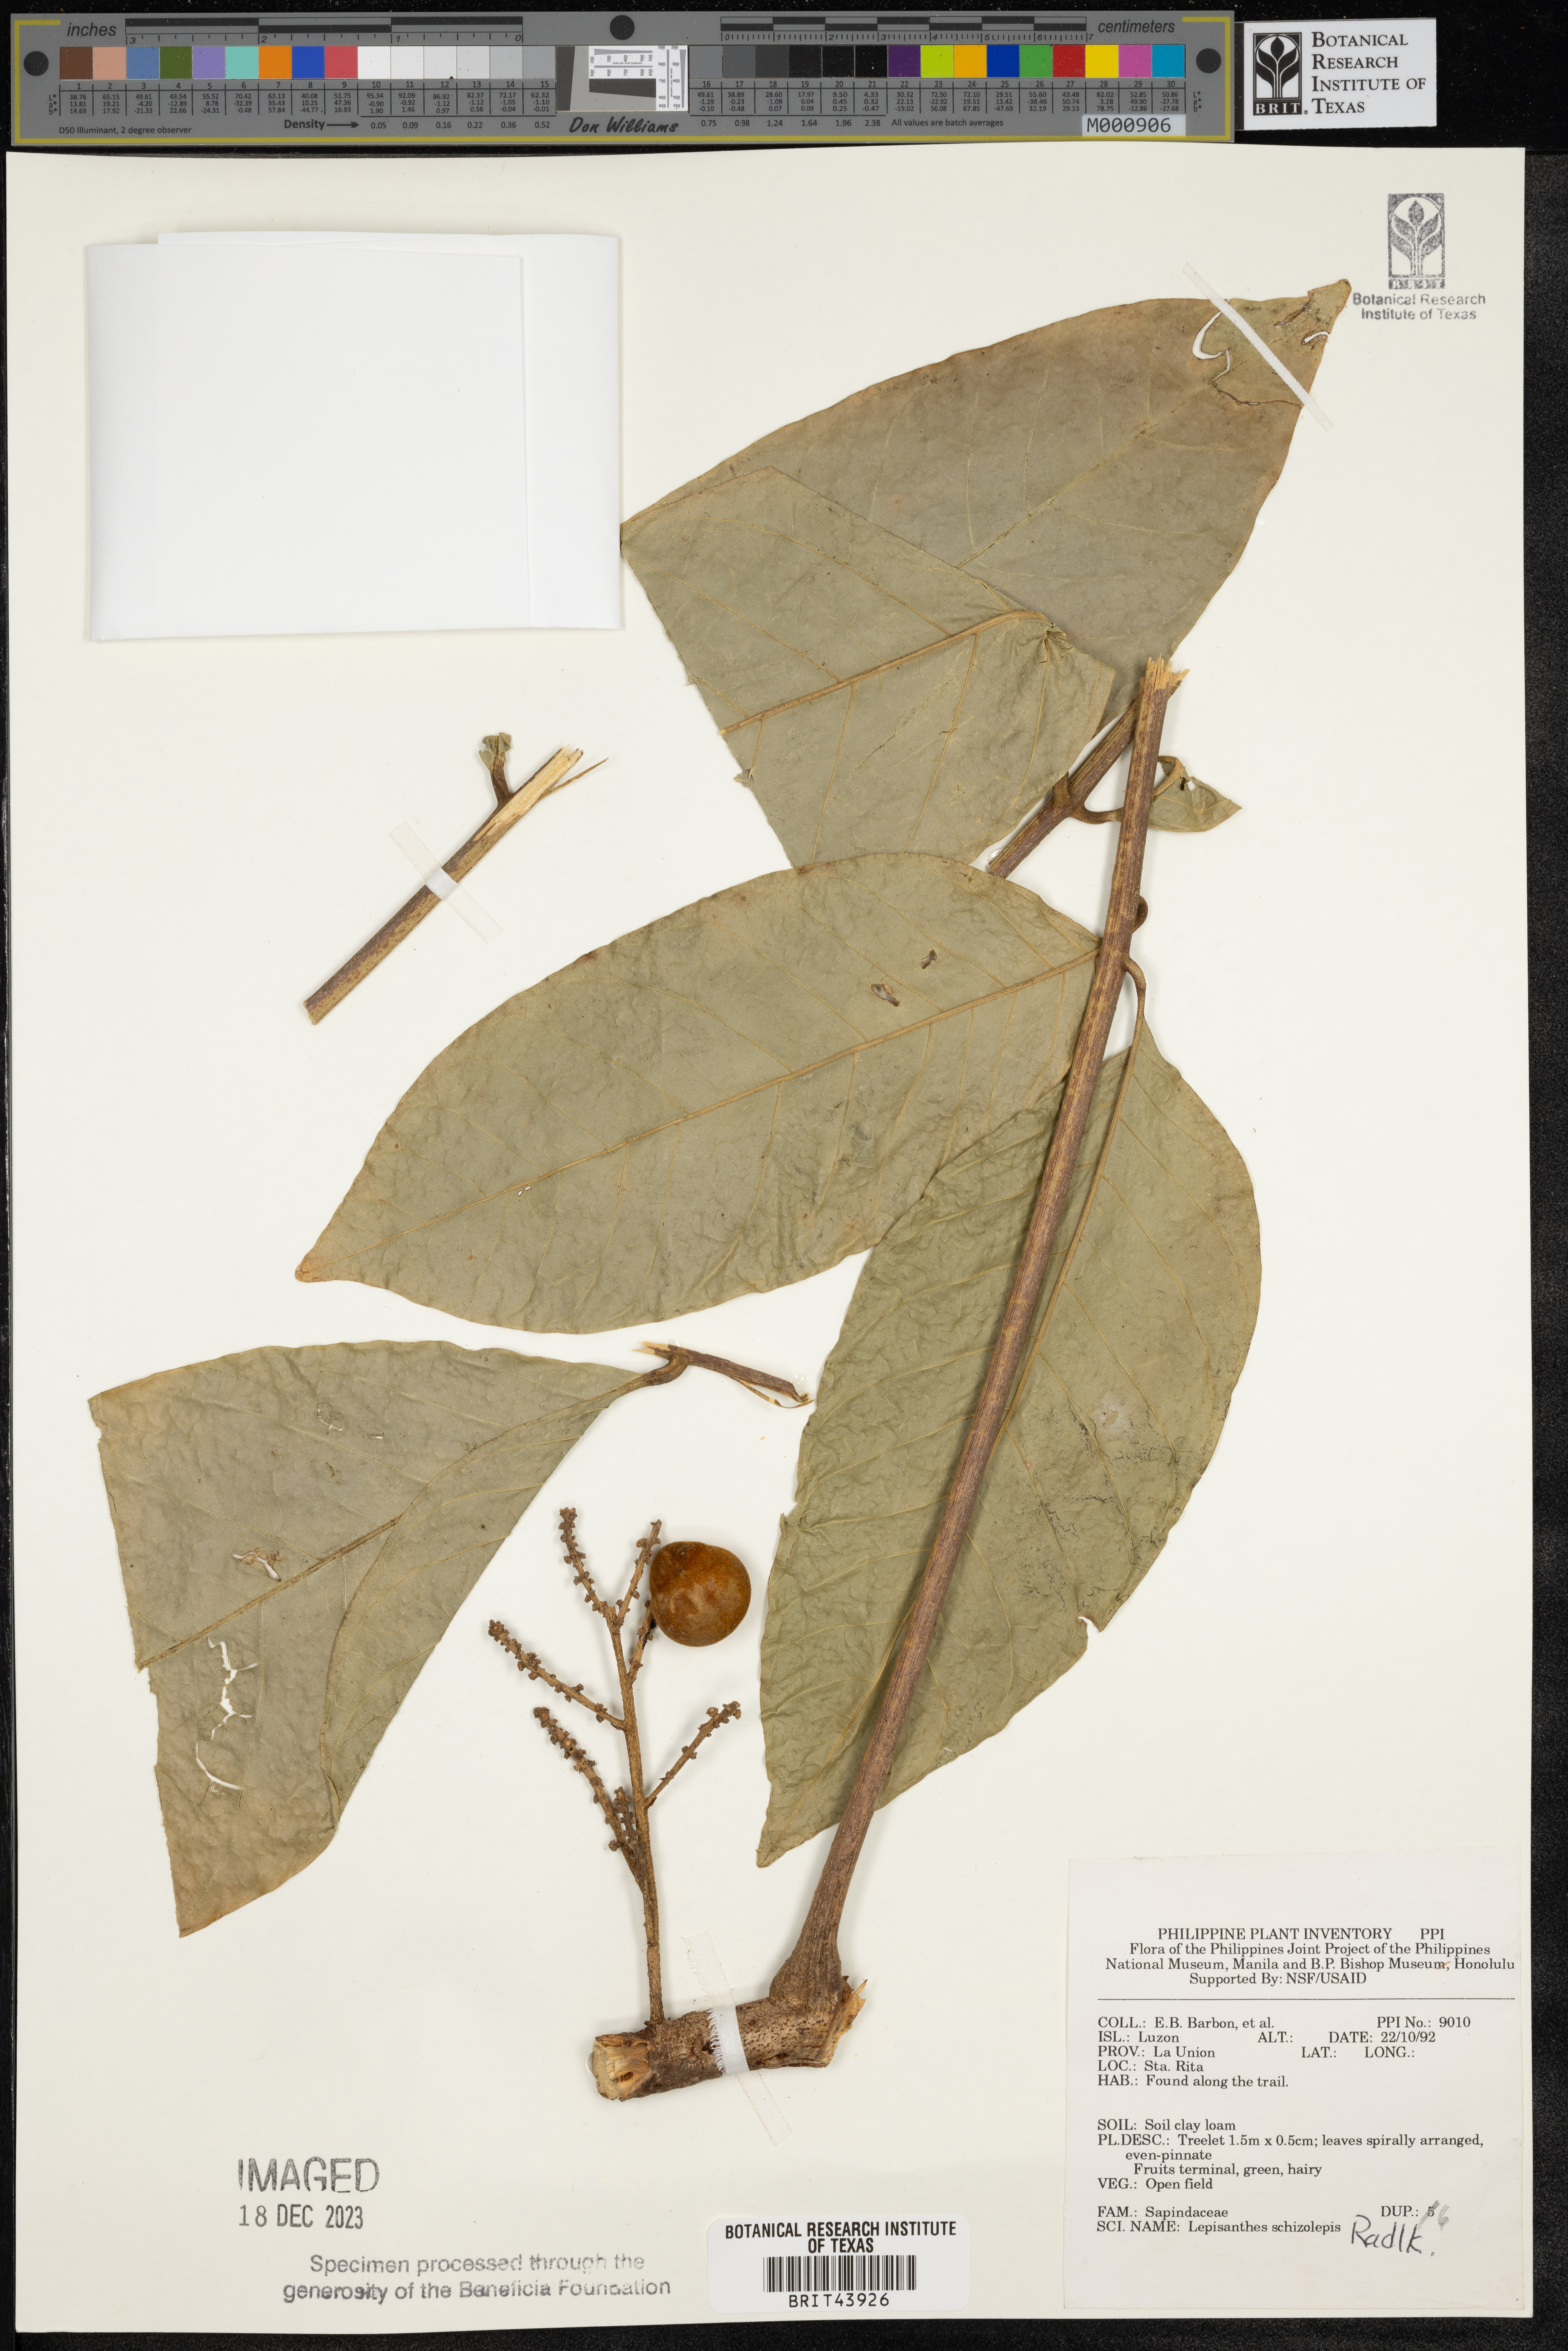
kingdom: Plantae
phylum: Tracheophyta
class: Magnoliopsida
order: Sapindales
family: Sapindaceae
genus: Lepisanthes
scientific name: Lepisanthes tetraphylla
